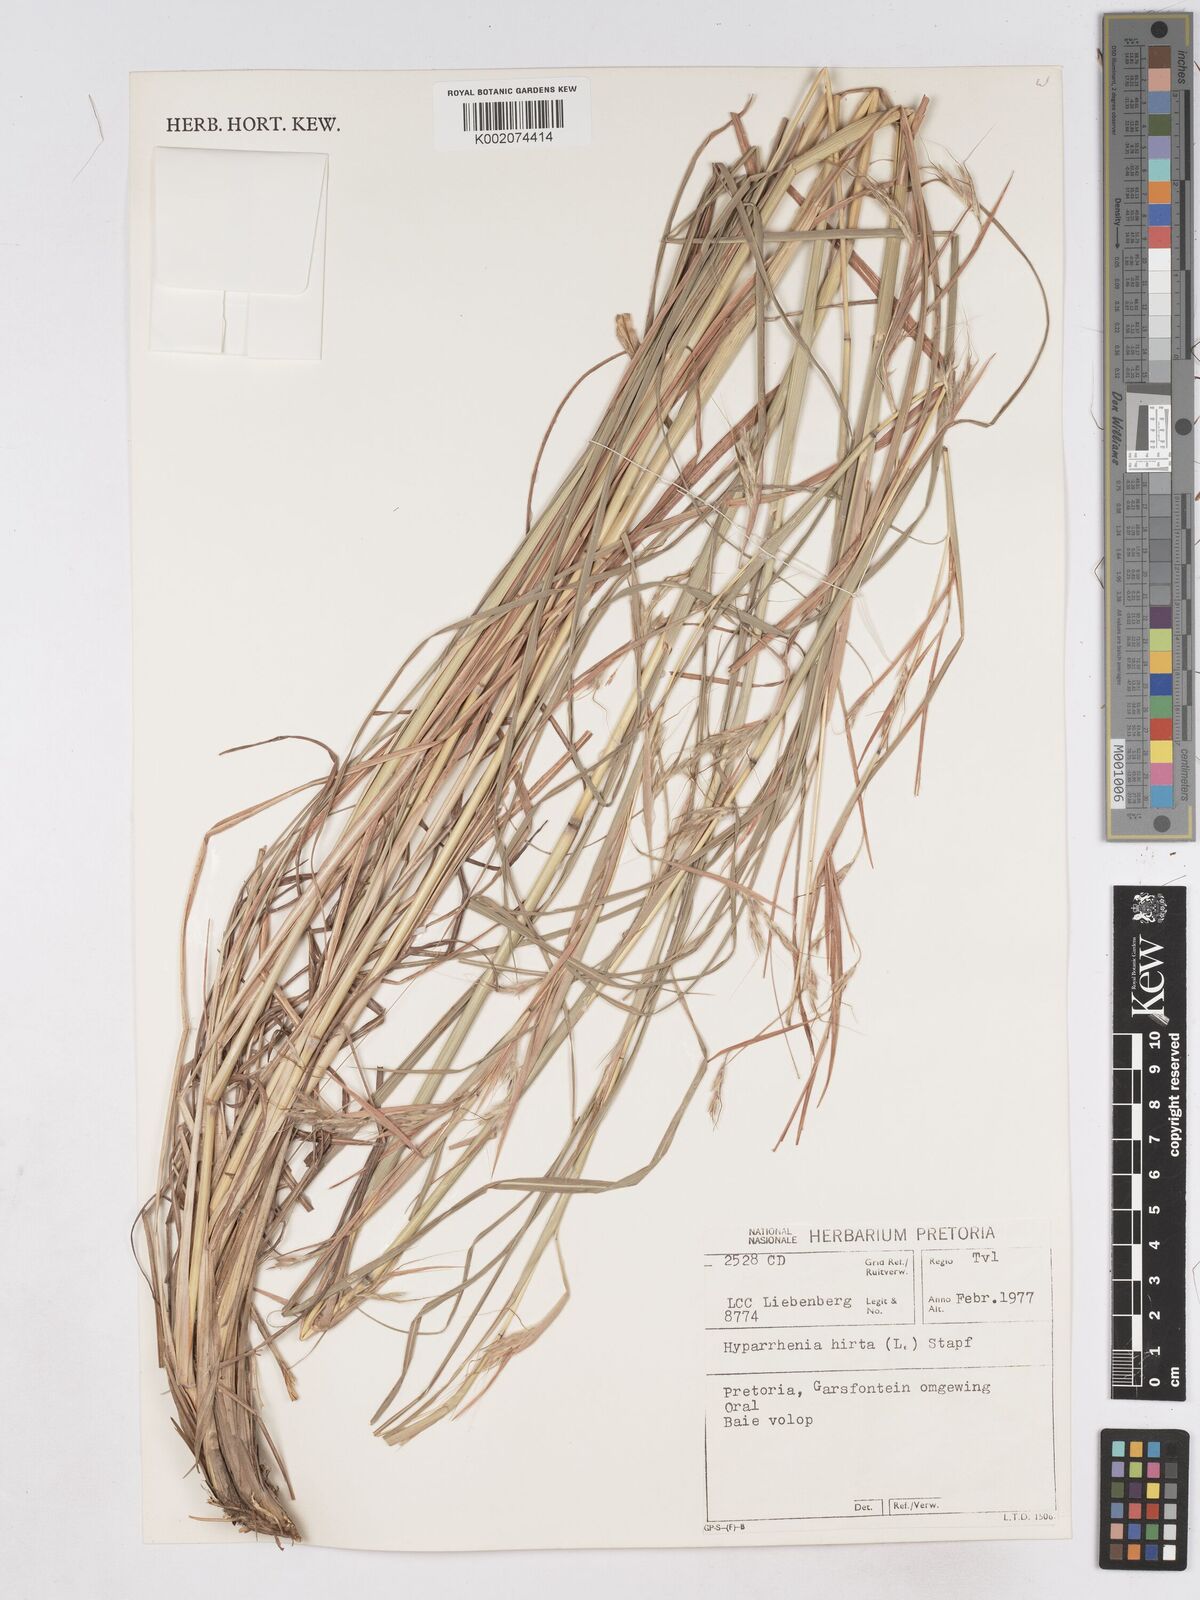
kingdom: Plantae
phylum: Tracheophyta
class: Liliopsida
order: Poales
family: Poaceae
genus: Hyparrhenia
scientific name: Hyparrhenia hirta
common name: Thatching grass
